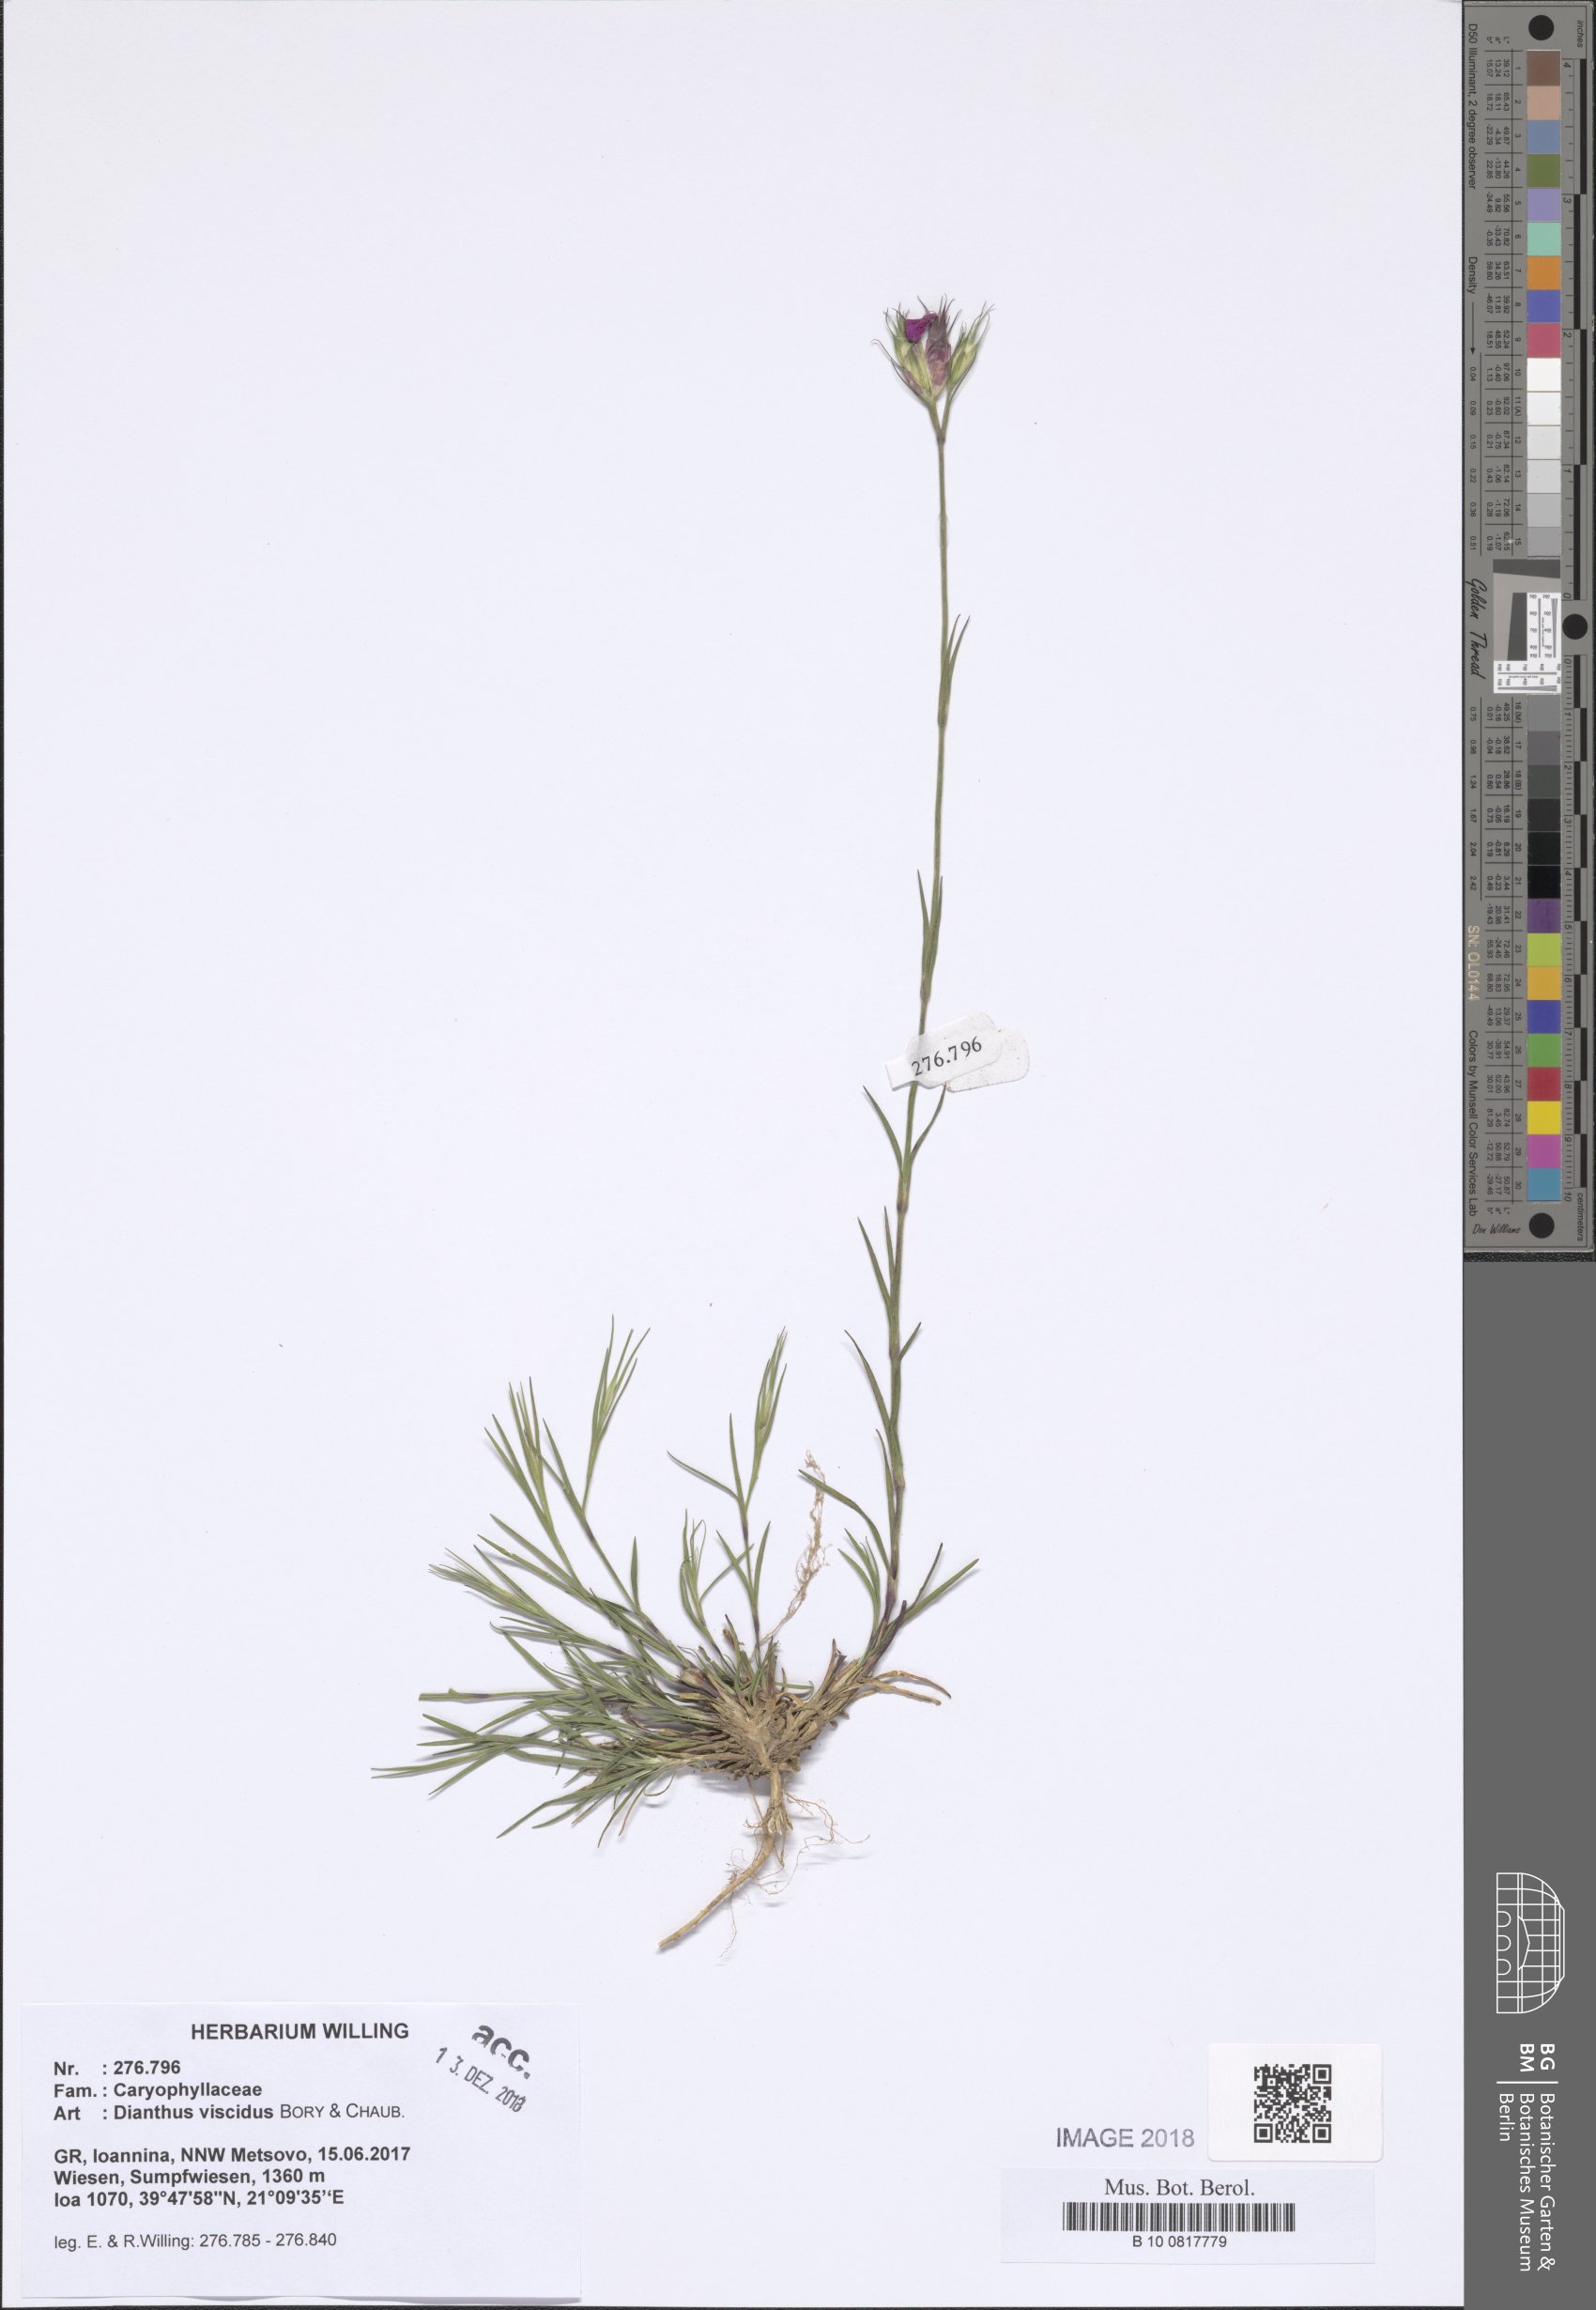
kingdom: Plantae
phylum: Tracheophyta
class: Magnoliopsida
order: Caryophyllales
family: Caryophyllaceae
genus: Dianthus
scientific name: Dianthus viscidus
